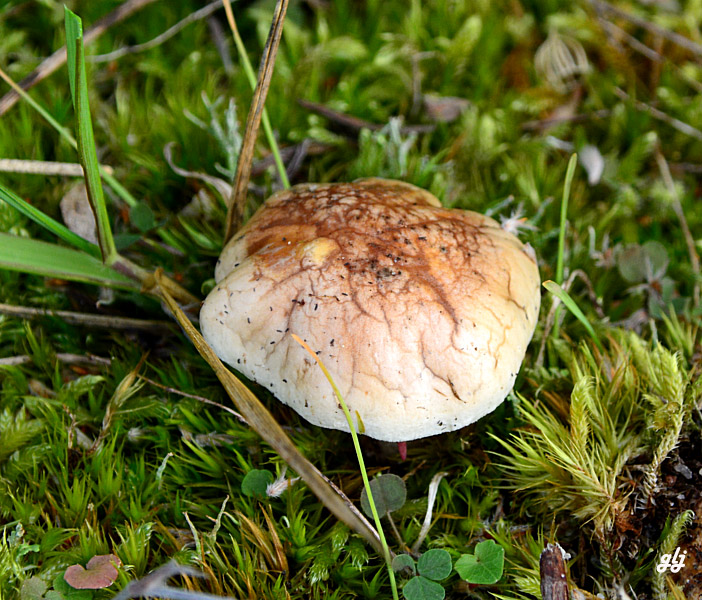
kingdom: Fungi
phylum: Basidiomycota
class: Agaricomycetes
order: Agaricales
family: Hymenogastraceae
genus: Hebeloma
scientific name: Hebeloma
